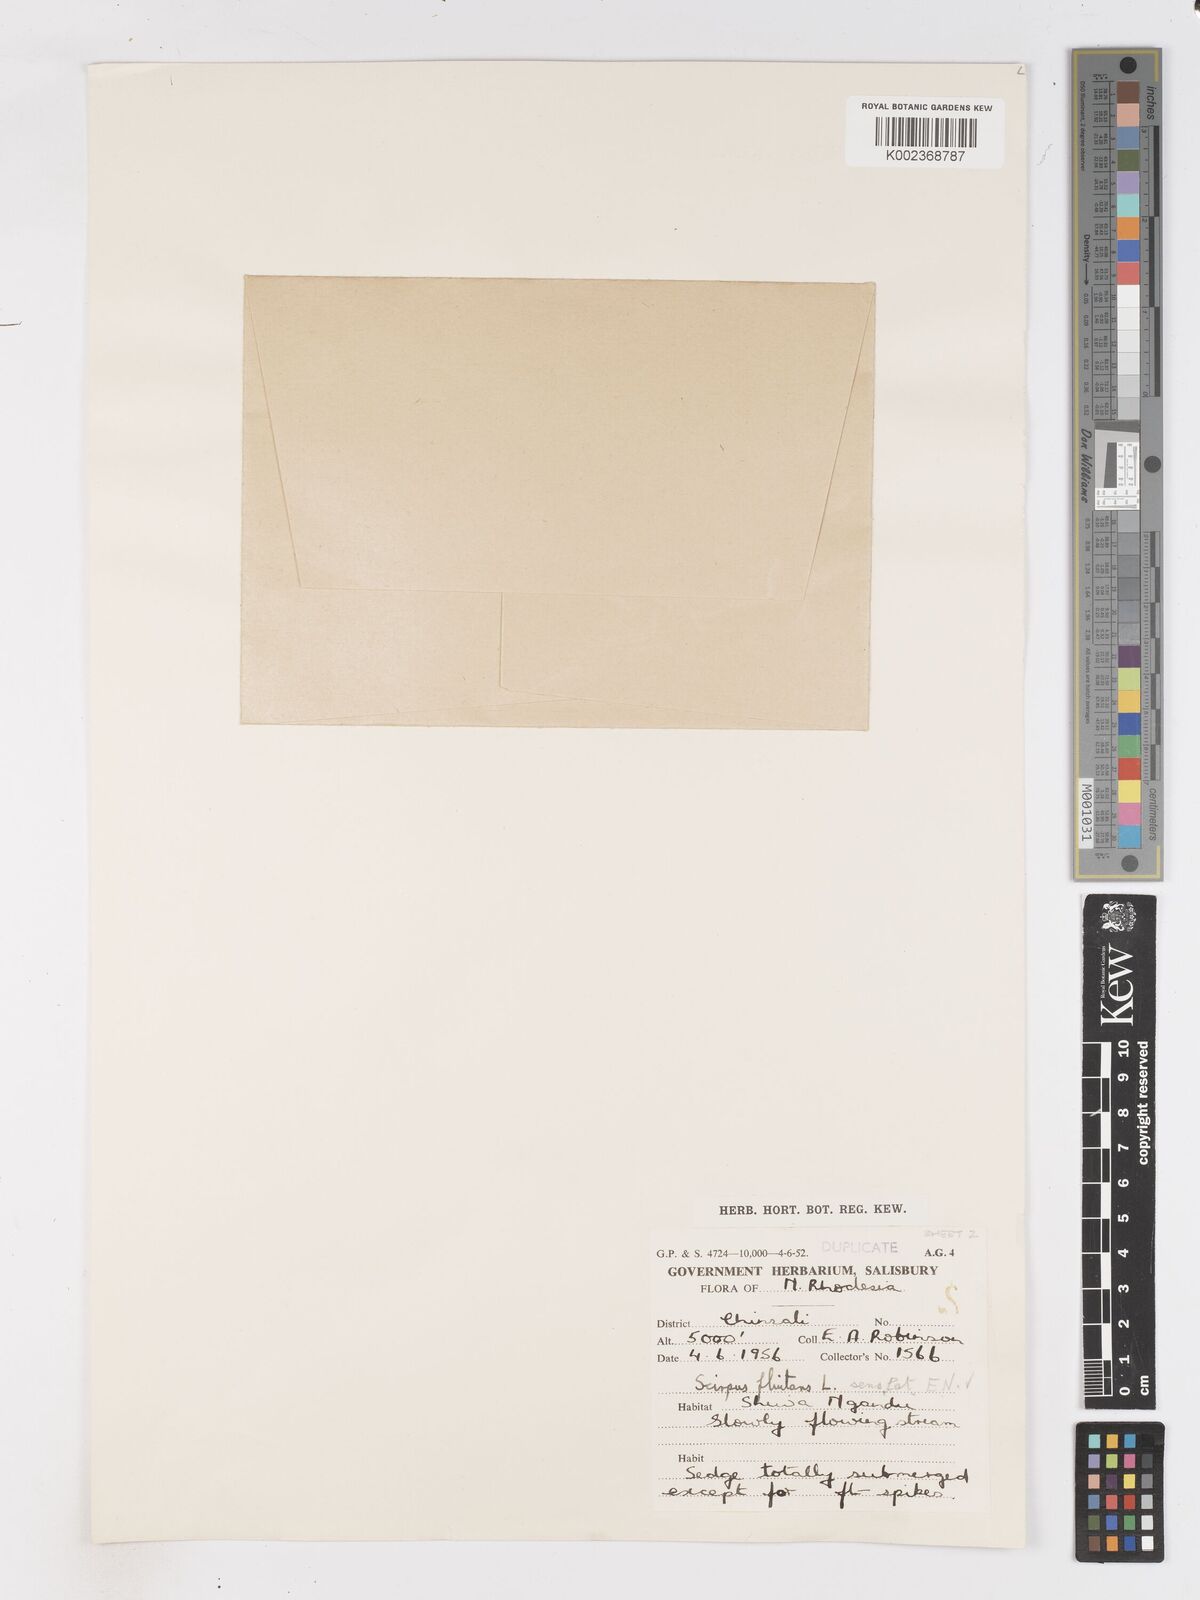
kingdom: Plantae
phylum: Tracheophyta
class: Liliopsida
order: Poales
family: Cyperaceae
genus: Isolepis
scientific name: Isolepis fluitans
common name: Floating club-rush
